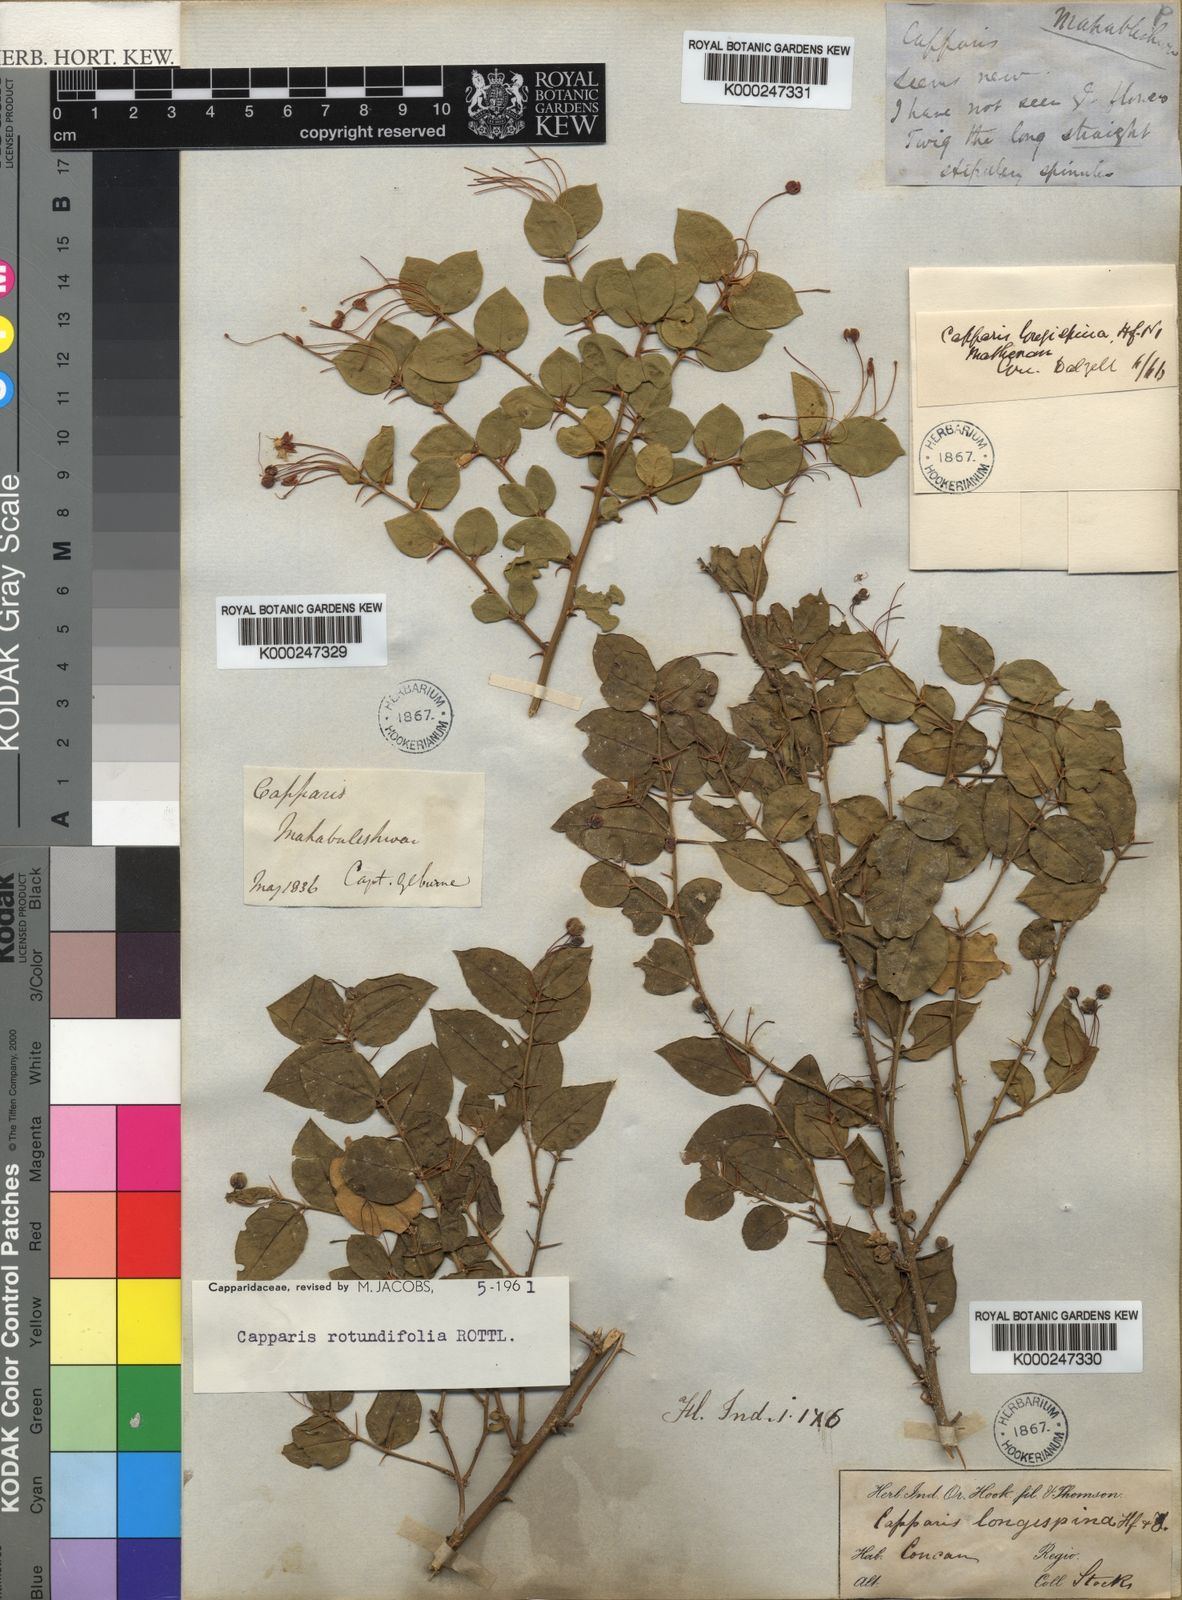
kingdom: Plantae
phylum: Tracheophyta
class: Magnoliopsida
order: Brassicales
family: Capparaceae
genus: Capparis
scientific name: Capparis rotundifolia
